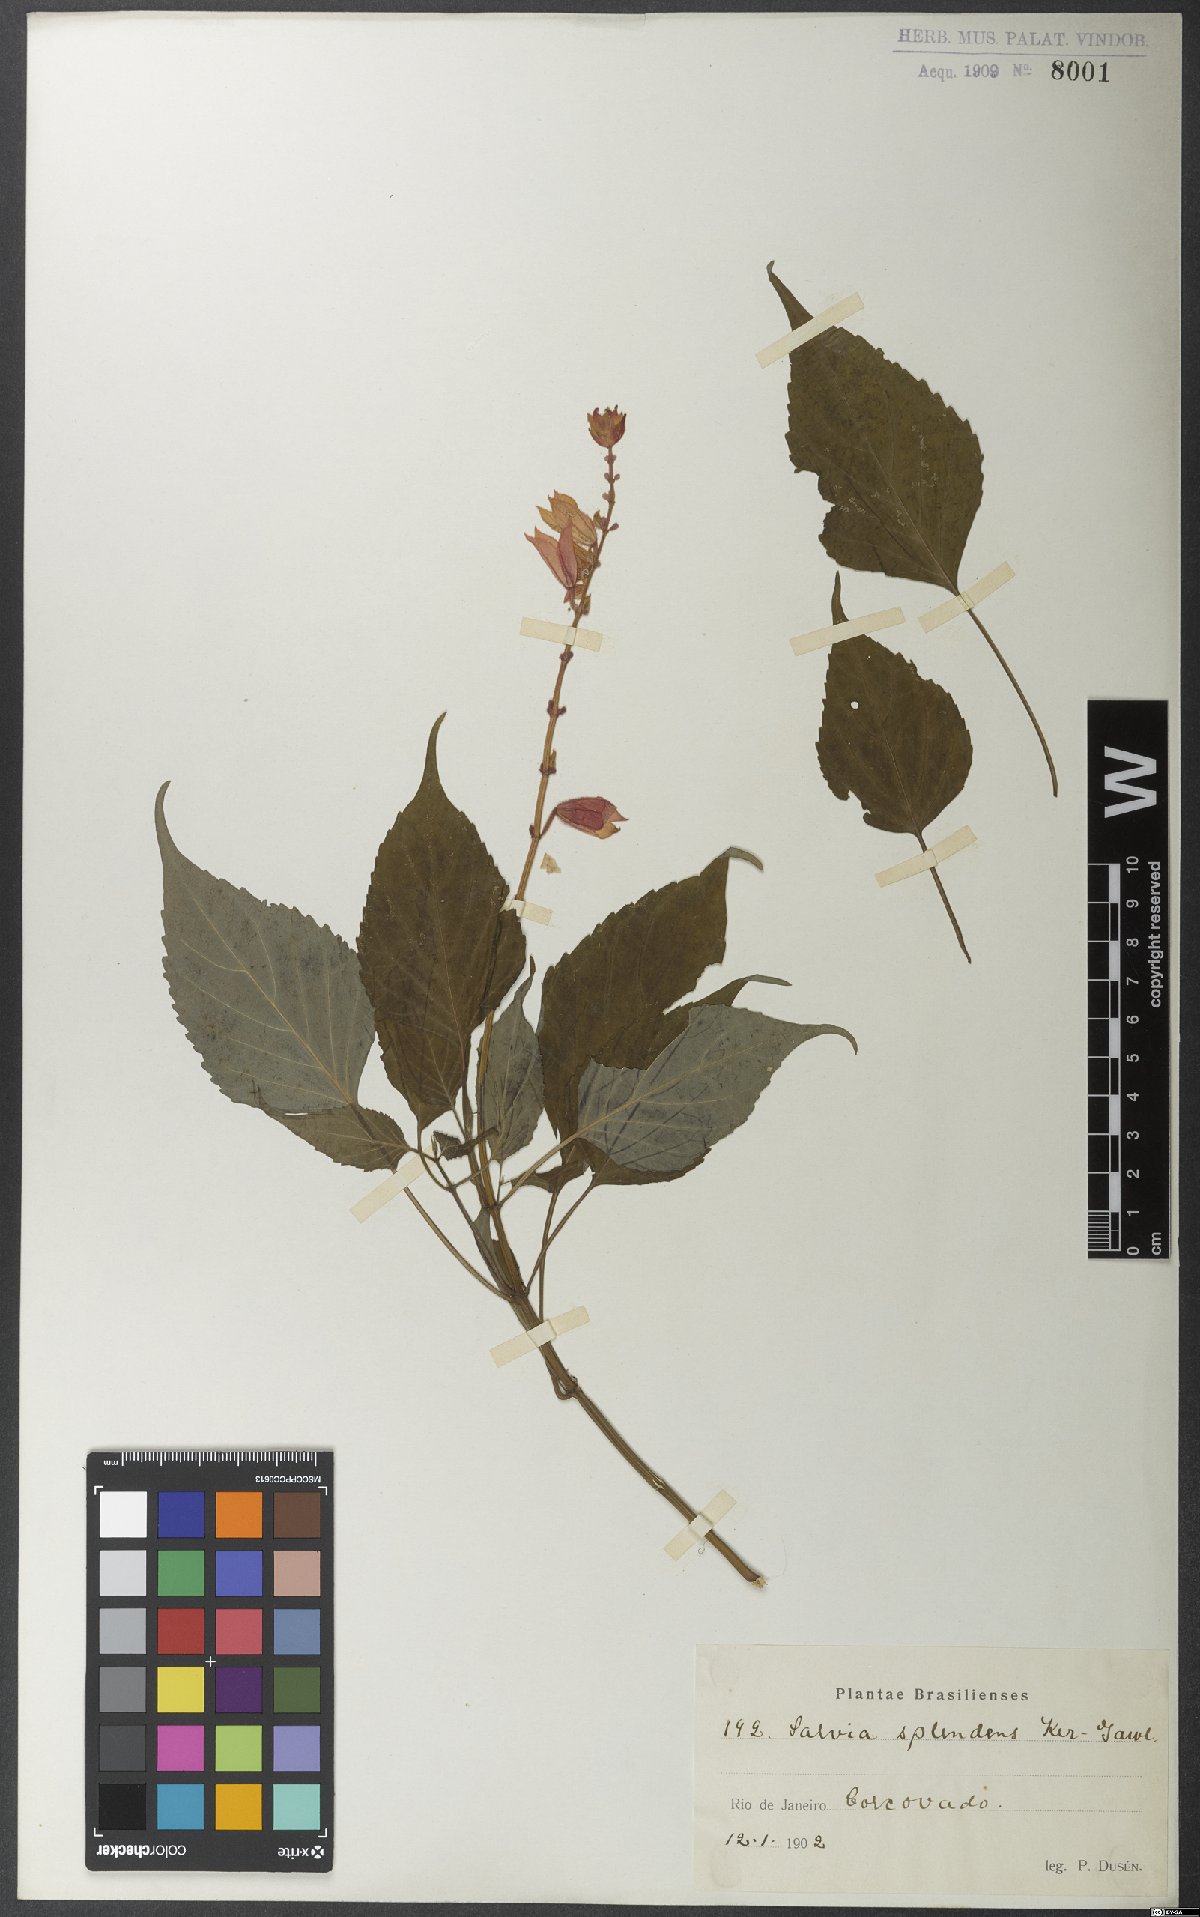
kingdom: Plantae
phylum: Tracheophyta
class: Magnoliopsida
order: Lamiales
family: Lamiaceae
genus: Salvia
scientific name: Salvia splendens
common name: Scarlet sage
